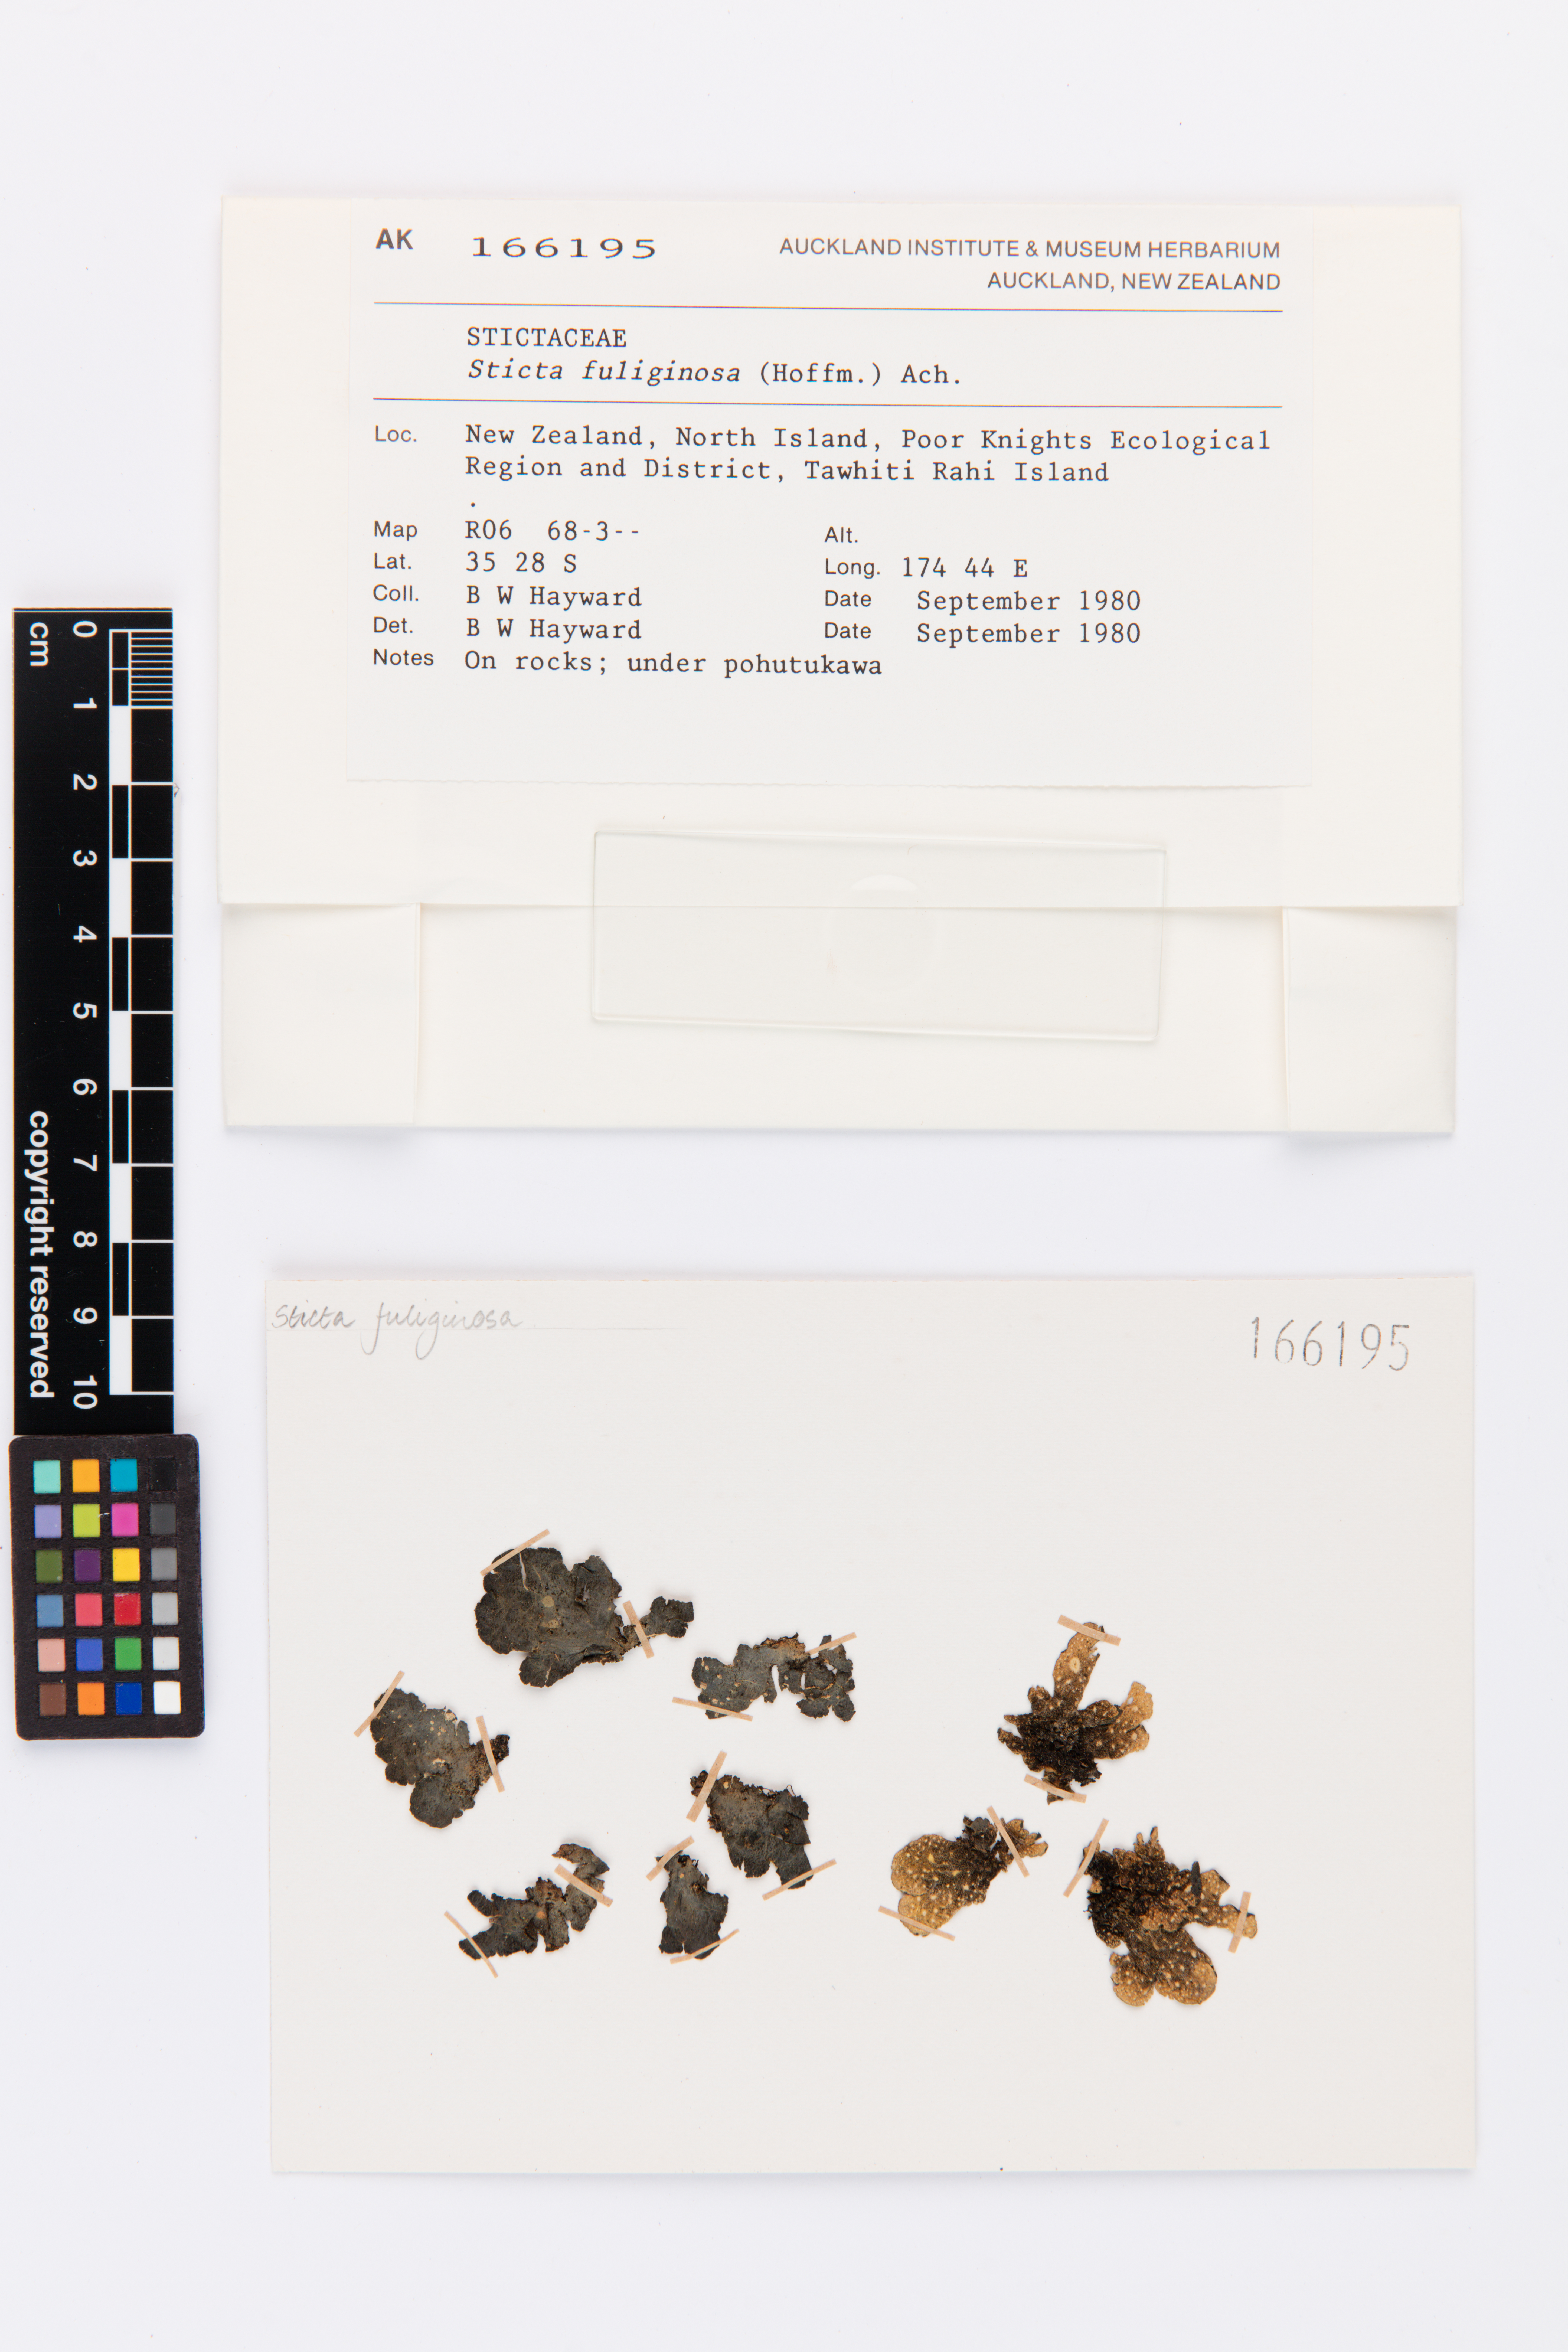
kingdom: Fungi
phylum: Ascomycota
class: Lecanoromycetes
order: Peltigerales
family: Lobariaceae
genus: Sticta
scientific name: Sticta fuliginosa
